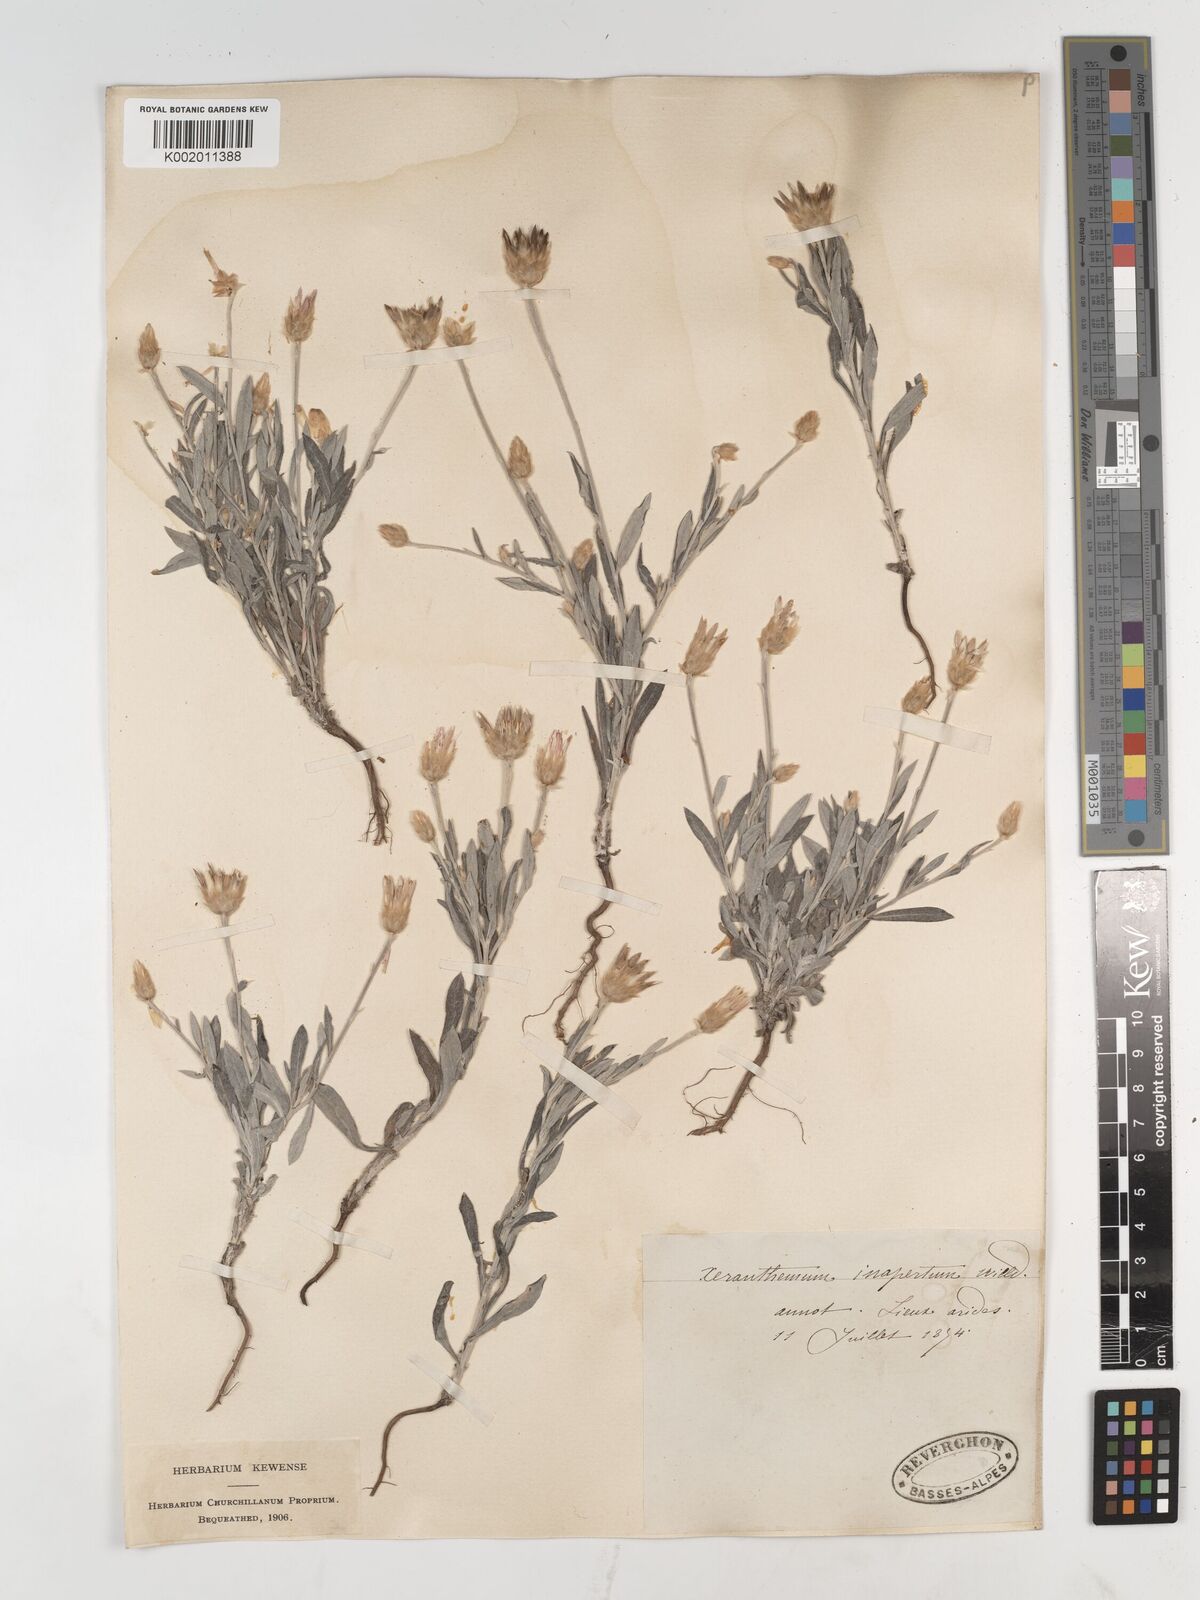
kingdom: Plantae
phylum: Tracheophyta
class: Magnoliopsida
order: Asterales
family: Asteraceae
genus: Xeranthemum
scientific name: Xeranthemum inapertum
